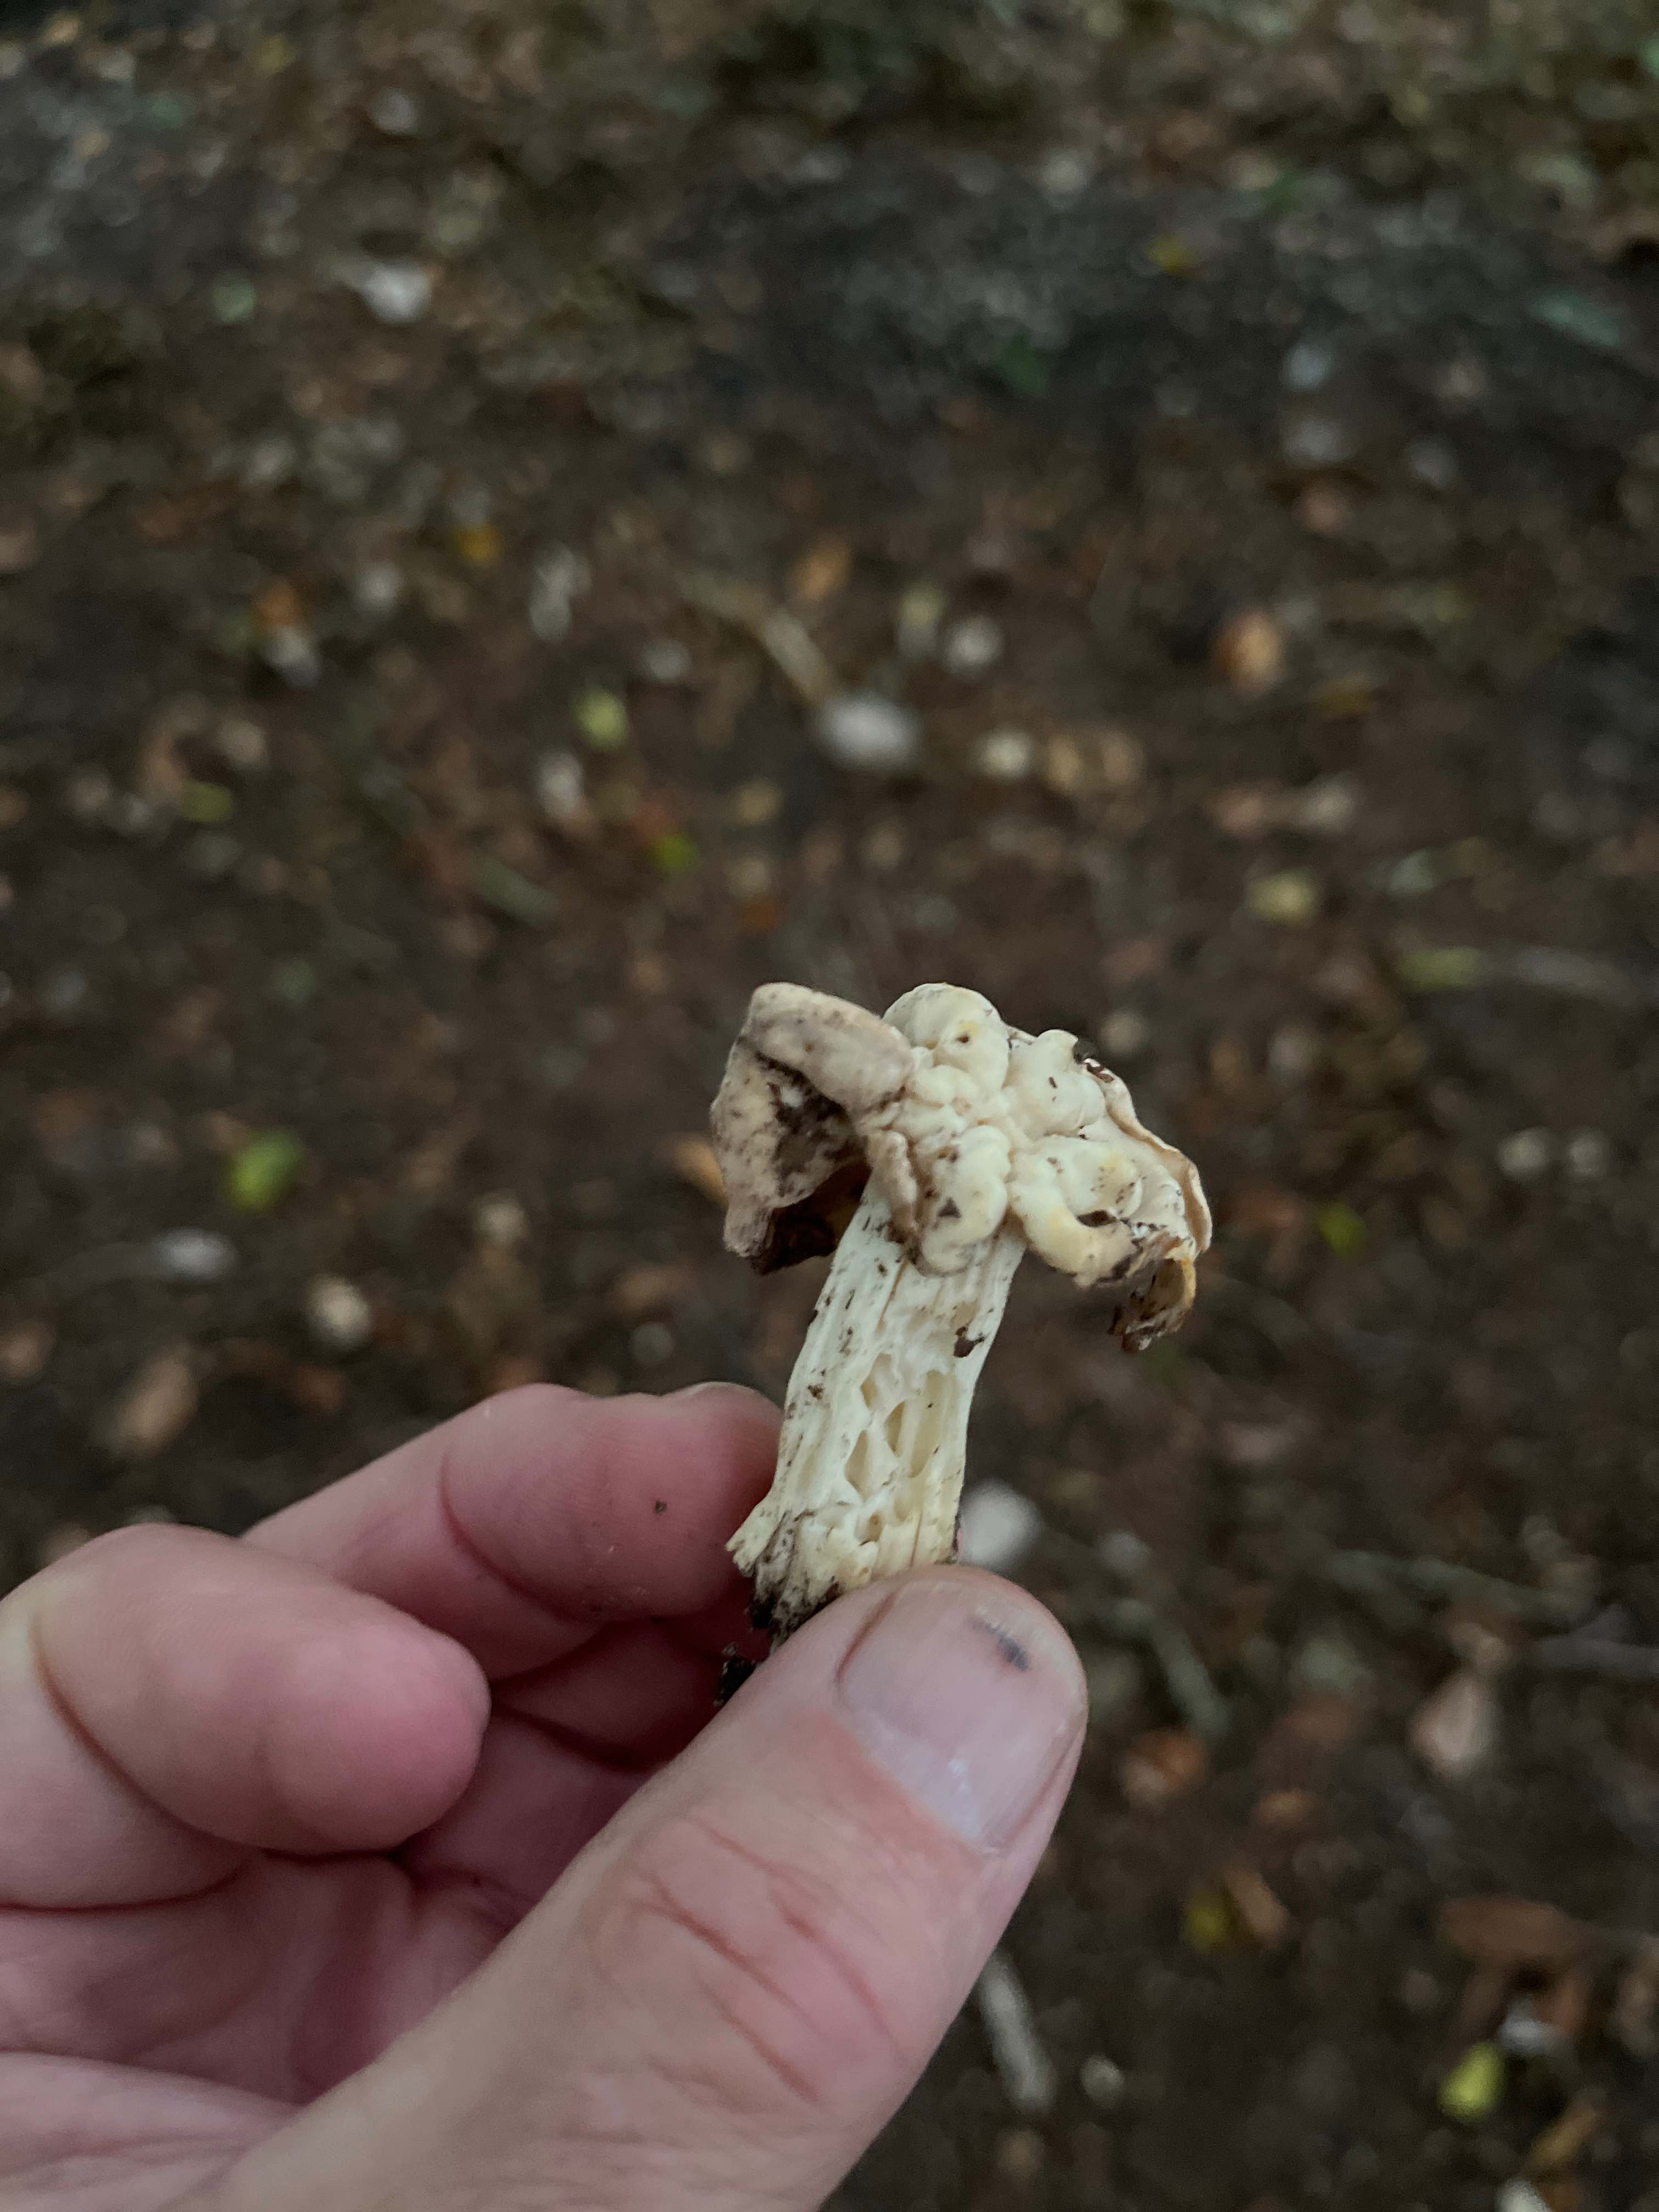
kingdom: Fungi
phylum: Ascomycota
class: Pezizomycetes
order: Pezizales
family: Helvellaceae
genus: Helvella
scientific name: Helvella crispa
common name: kruset foldhat
